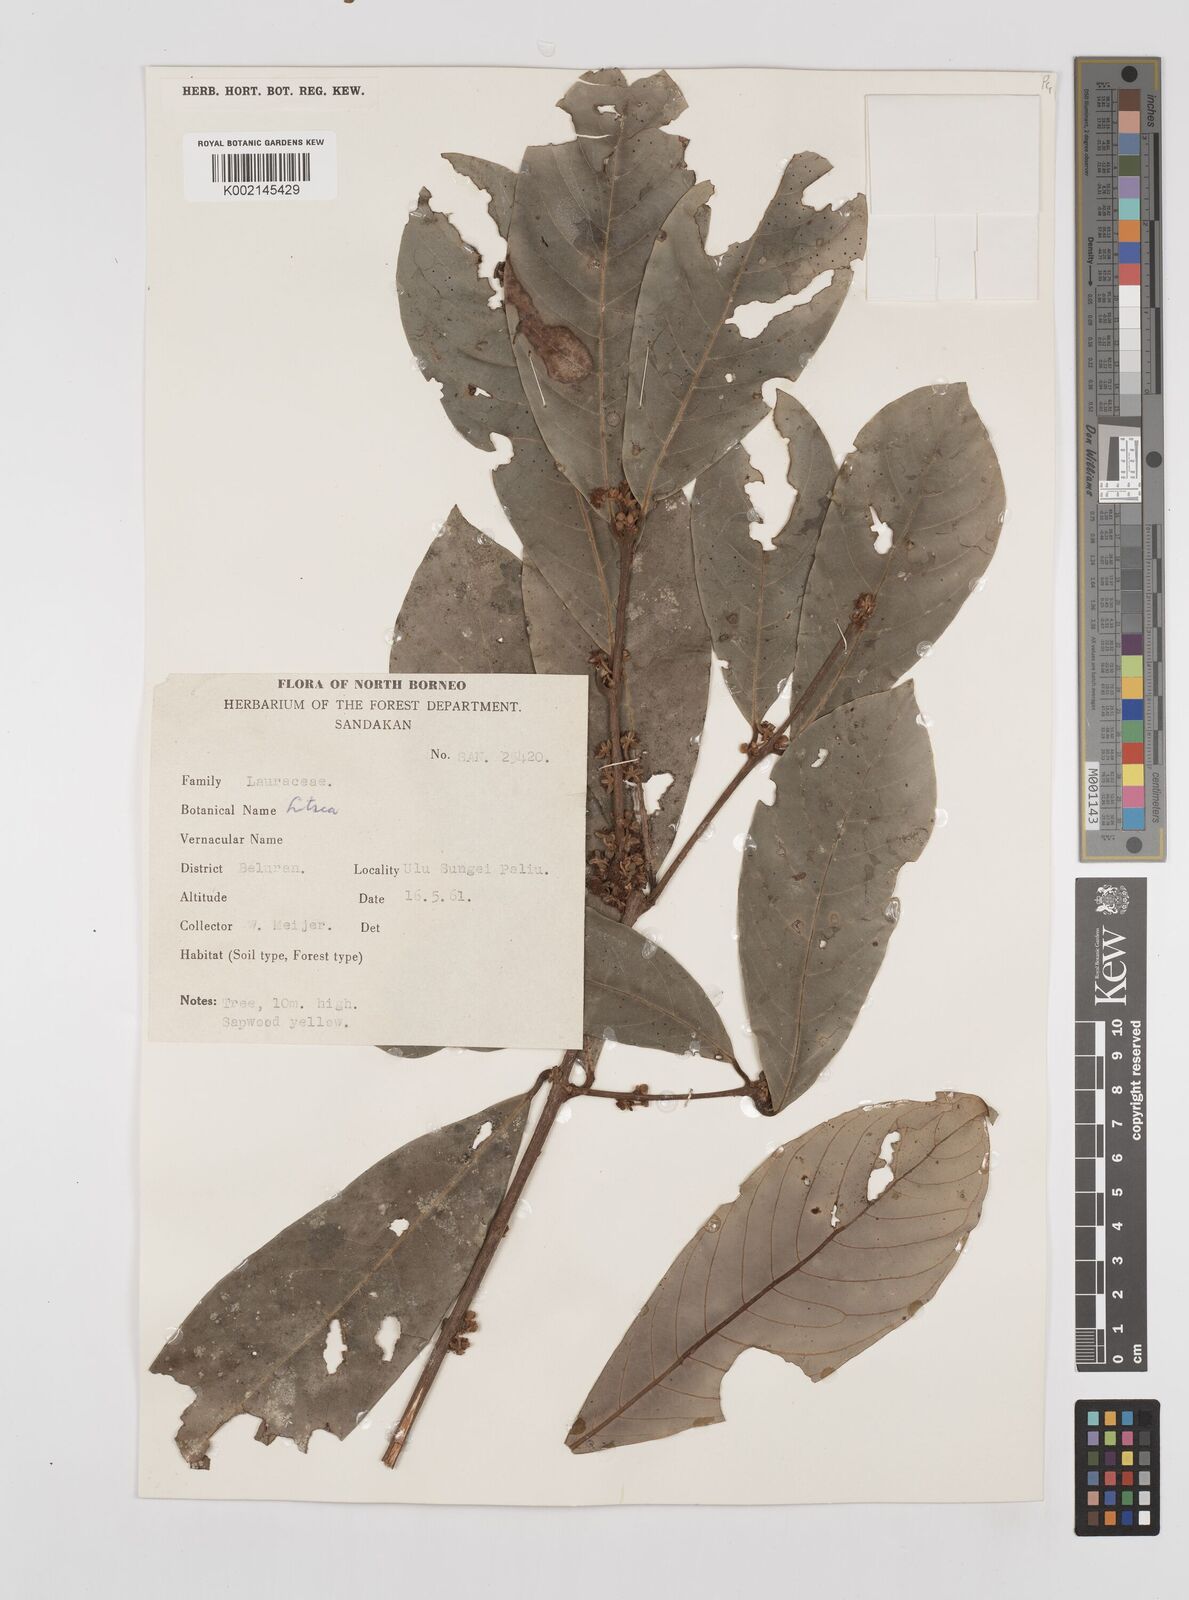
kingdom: Plantae
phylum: Tracheophyta
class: Magnoliopsida
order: Laurales
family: Lauraceae
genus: Litsea
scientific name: Litsea
